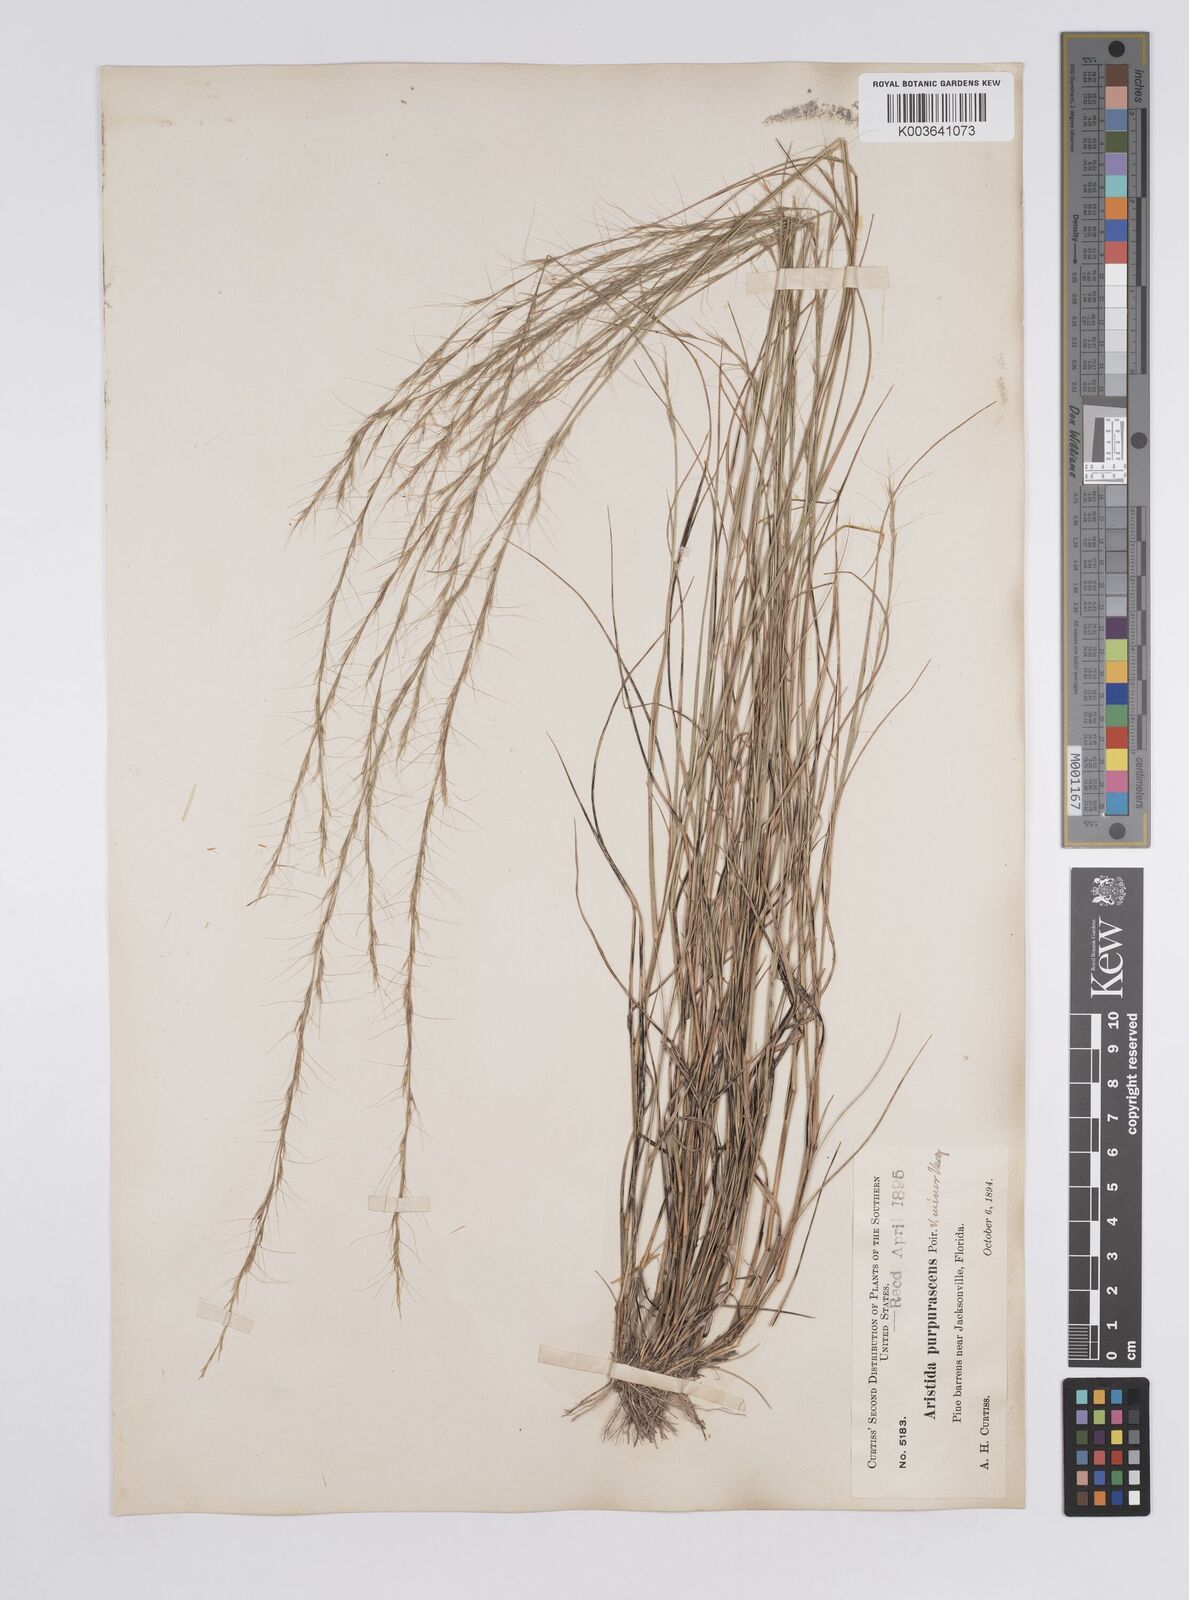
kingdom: Plantae
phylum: Tracheophyta
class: Liliopsida
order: Poales
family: Poaceae
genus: Aristida
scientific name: Aristida purpurascens
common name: Arrow-feather
